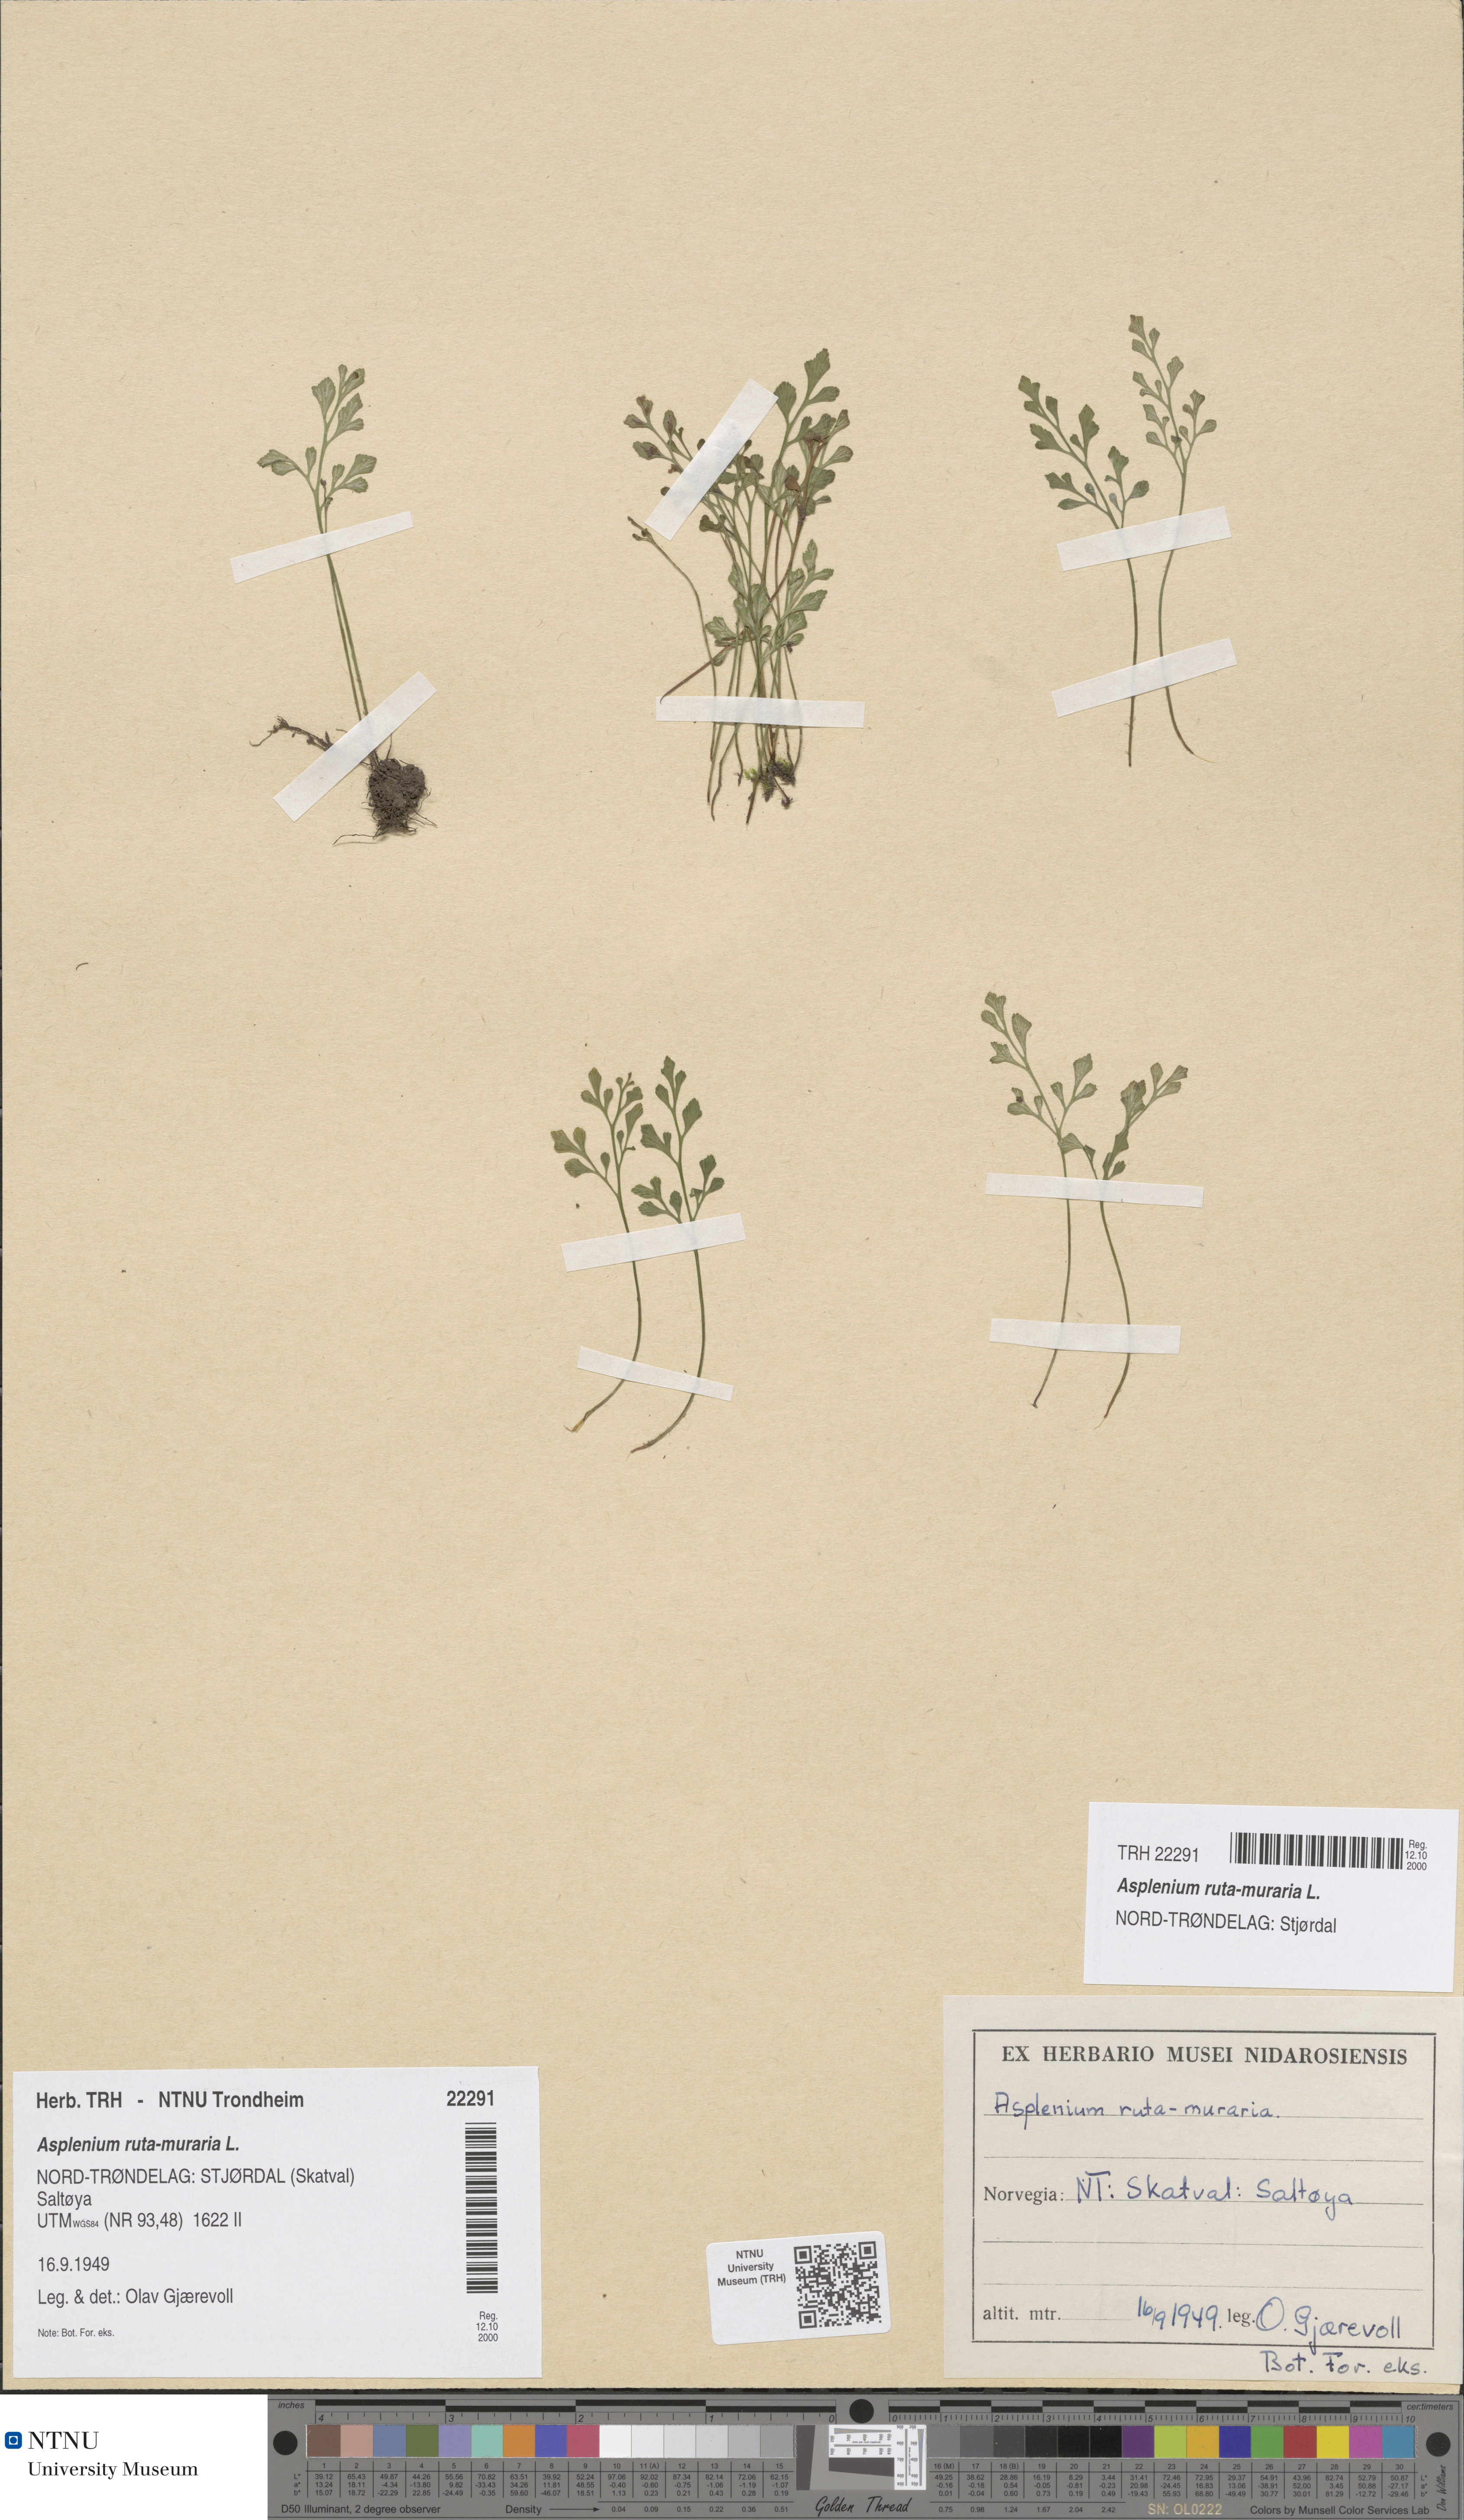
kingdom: Plantae
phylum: Tracheophyta
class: Polypodiopsida
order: Polypodiales
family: Aspleniaceae
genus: Asplenium
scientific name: Asplenium ruta-muraria
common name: Wall-rue
